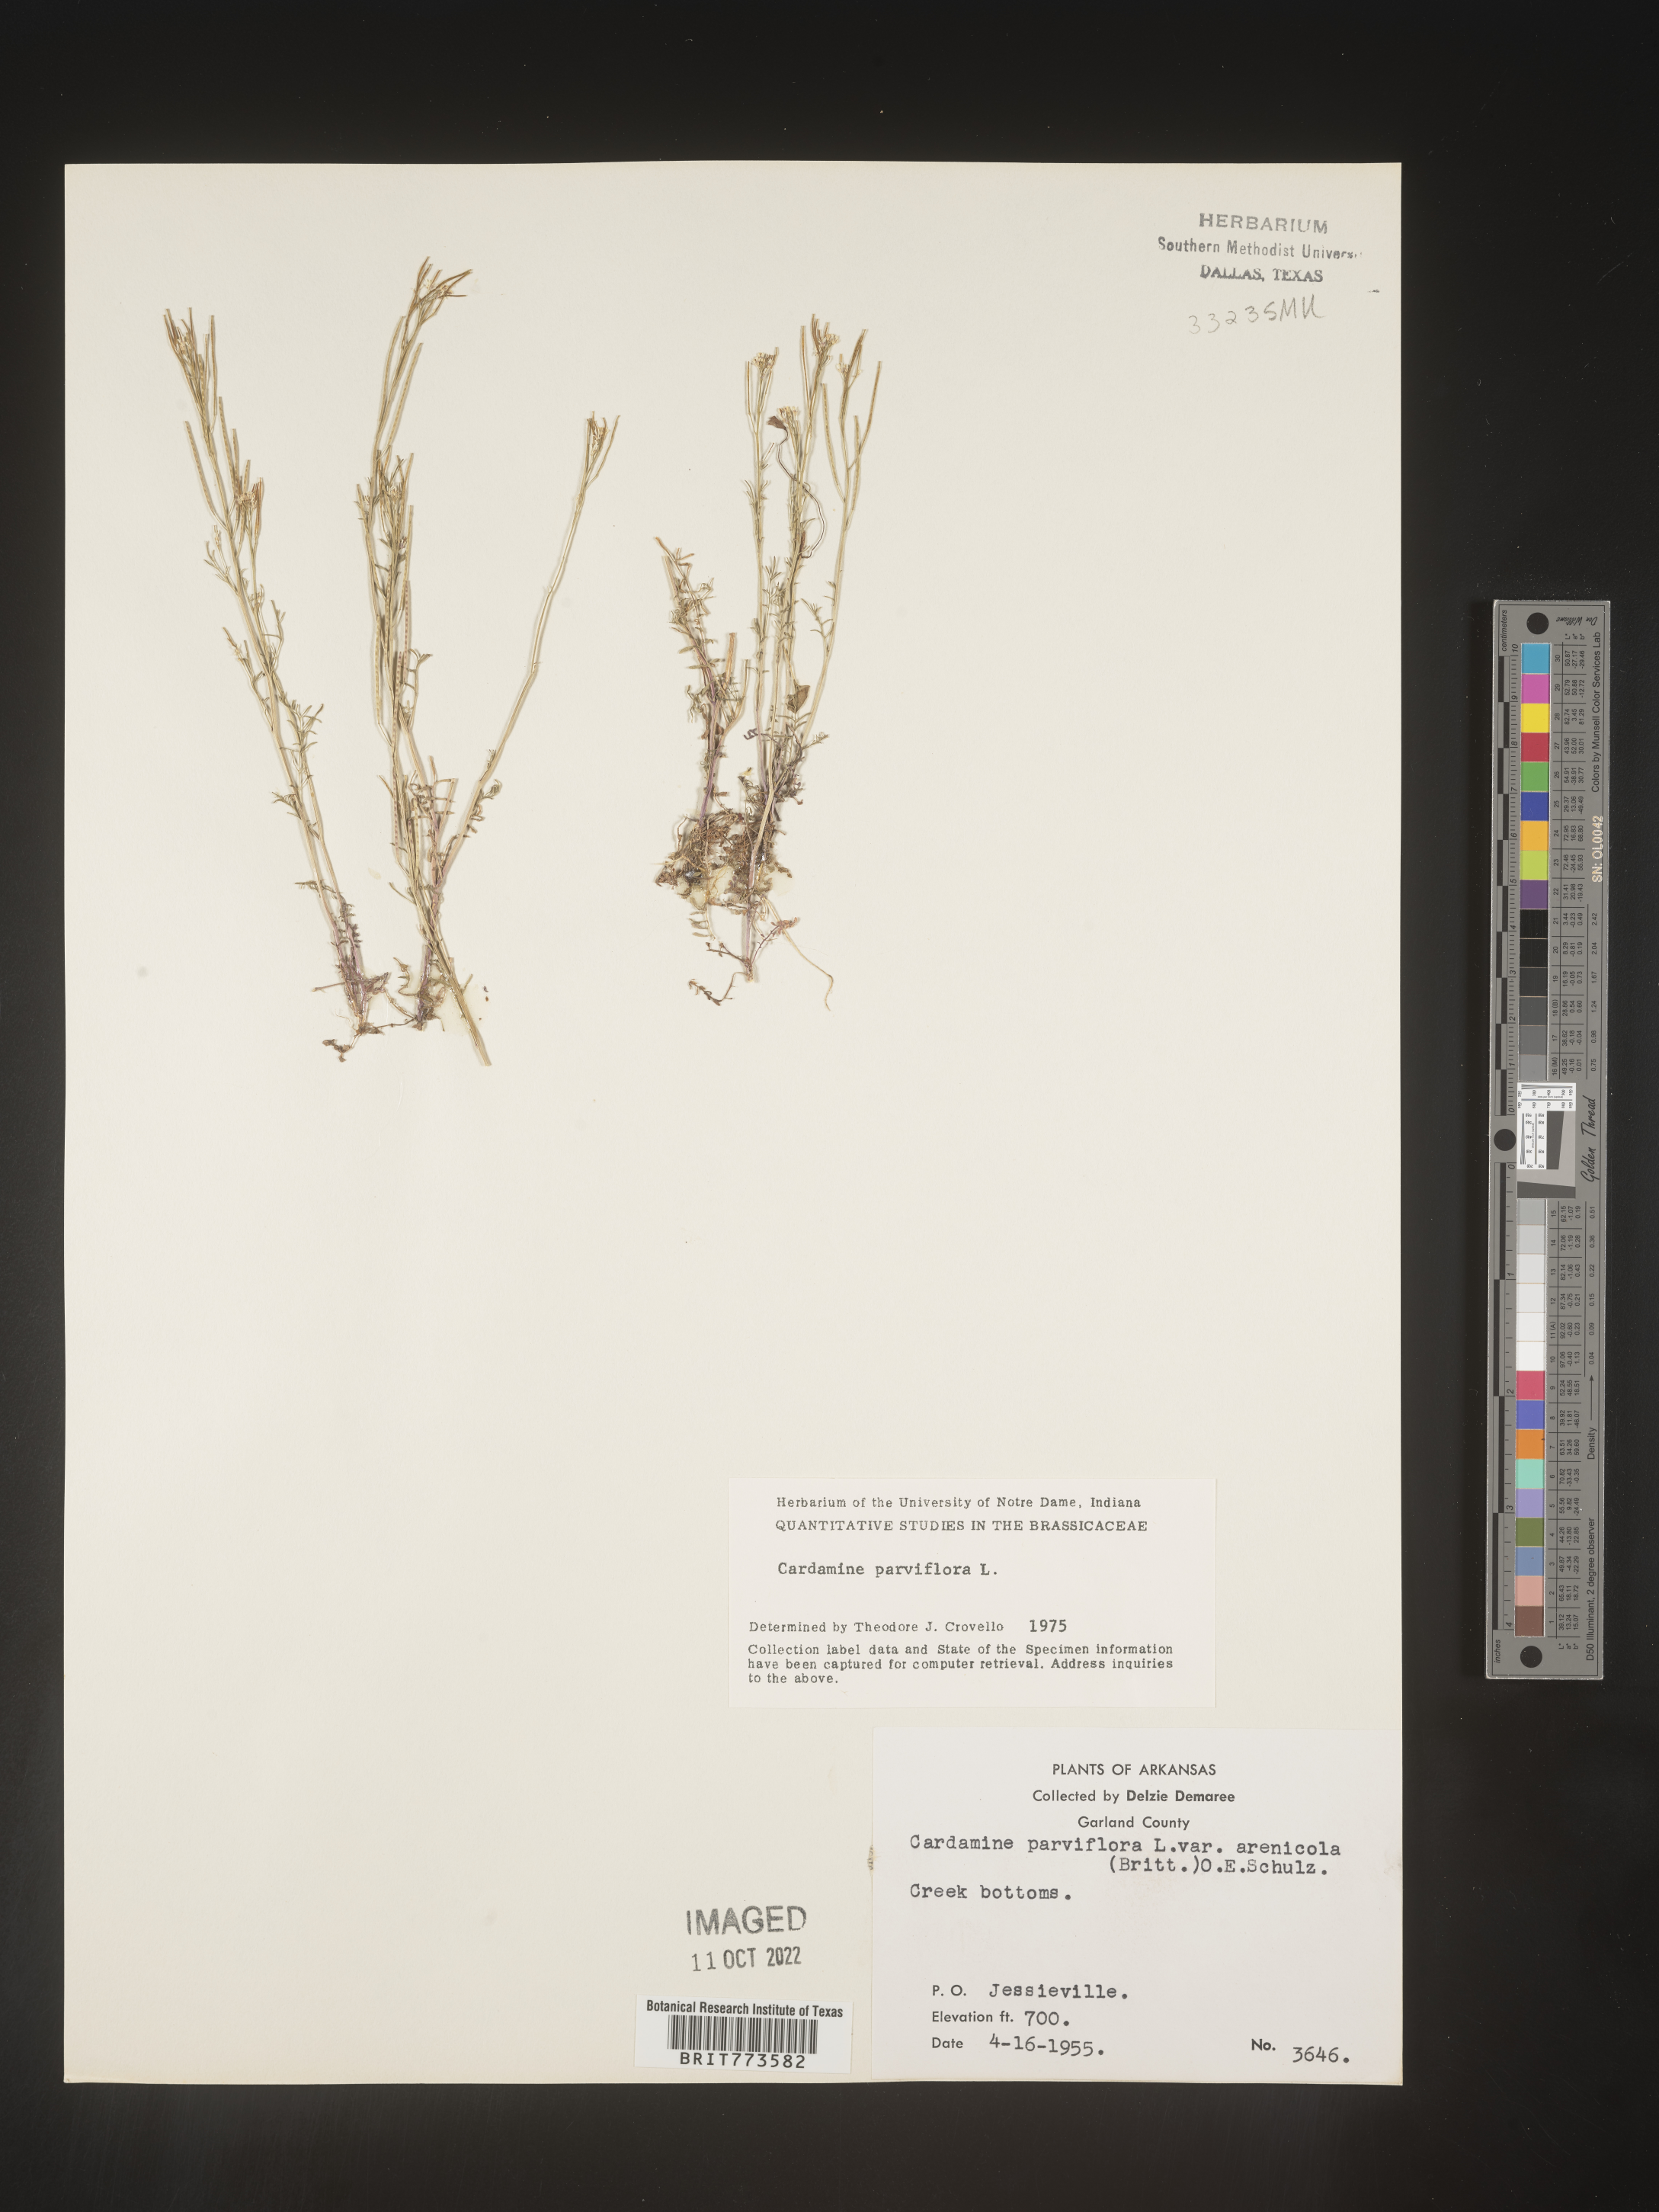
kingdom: Plantae
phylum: Tracheophyta
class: Magnoliopsida
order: Brassicales
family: Brassicaceae
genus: Cardamine
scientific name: Cardamine parviflora
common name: Sand bittercress
